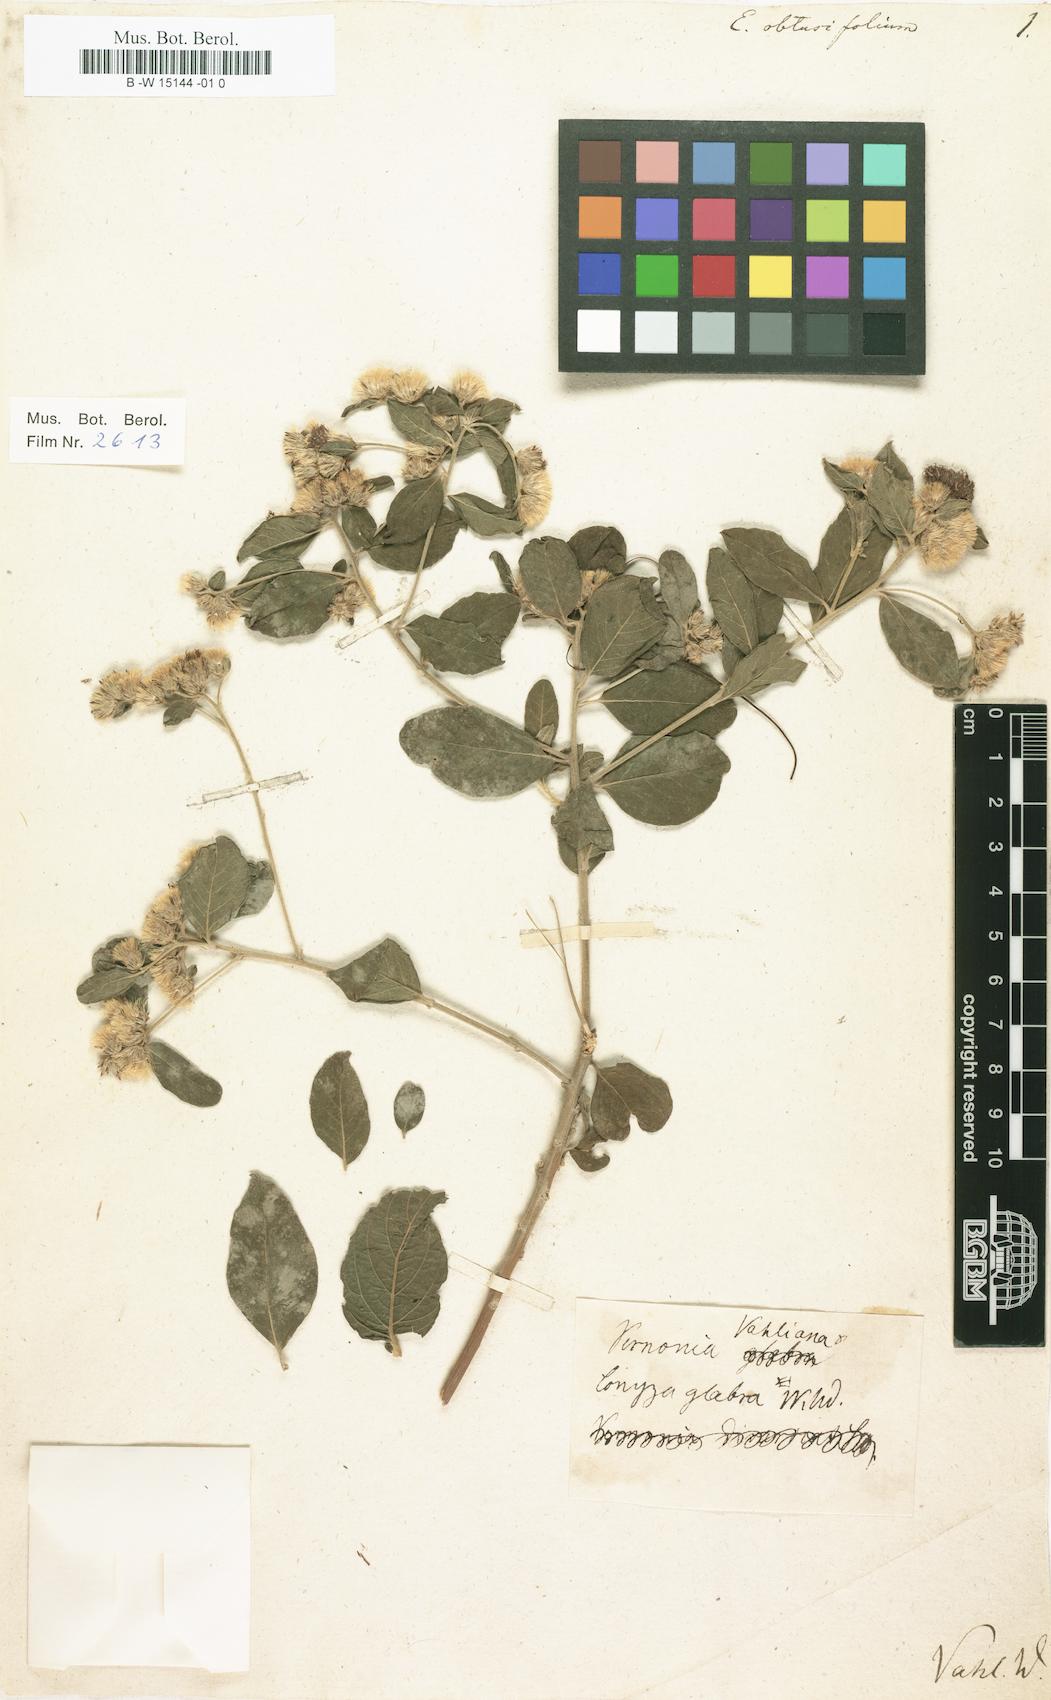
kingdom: Plantae
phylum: Tracheophyta
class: Magnoliopsida
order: Asterales
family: Asteraceae
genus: Lepidaploa
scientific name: Lepidaploa glabra
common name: Santa maria
